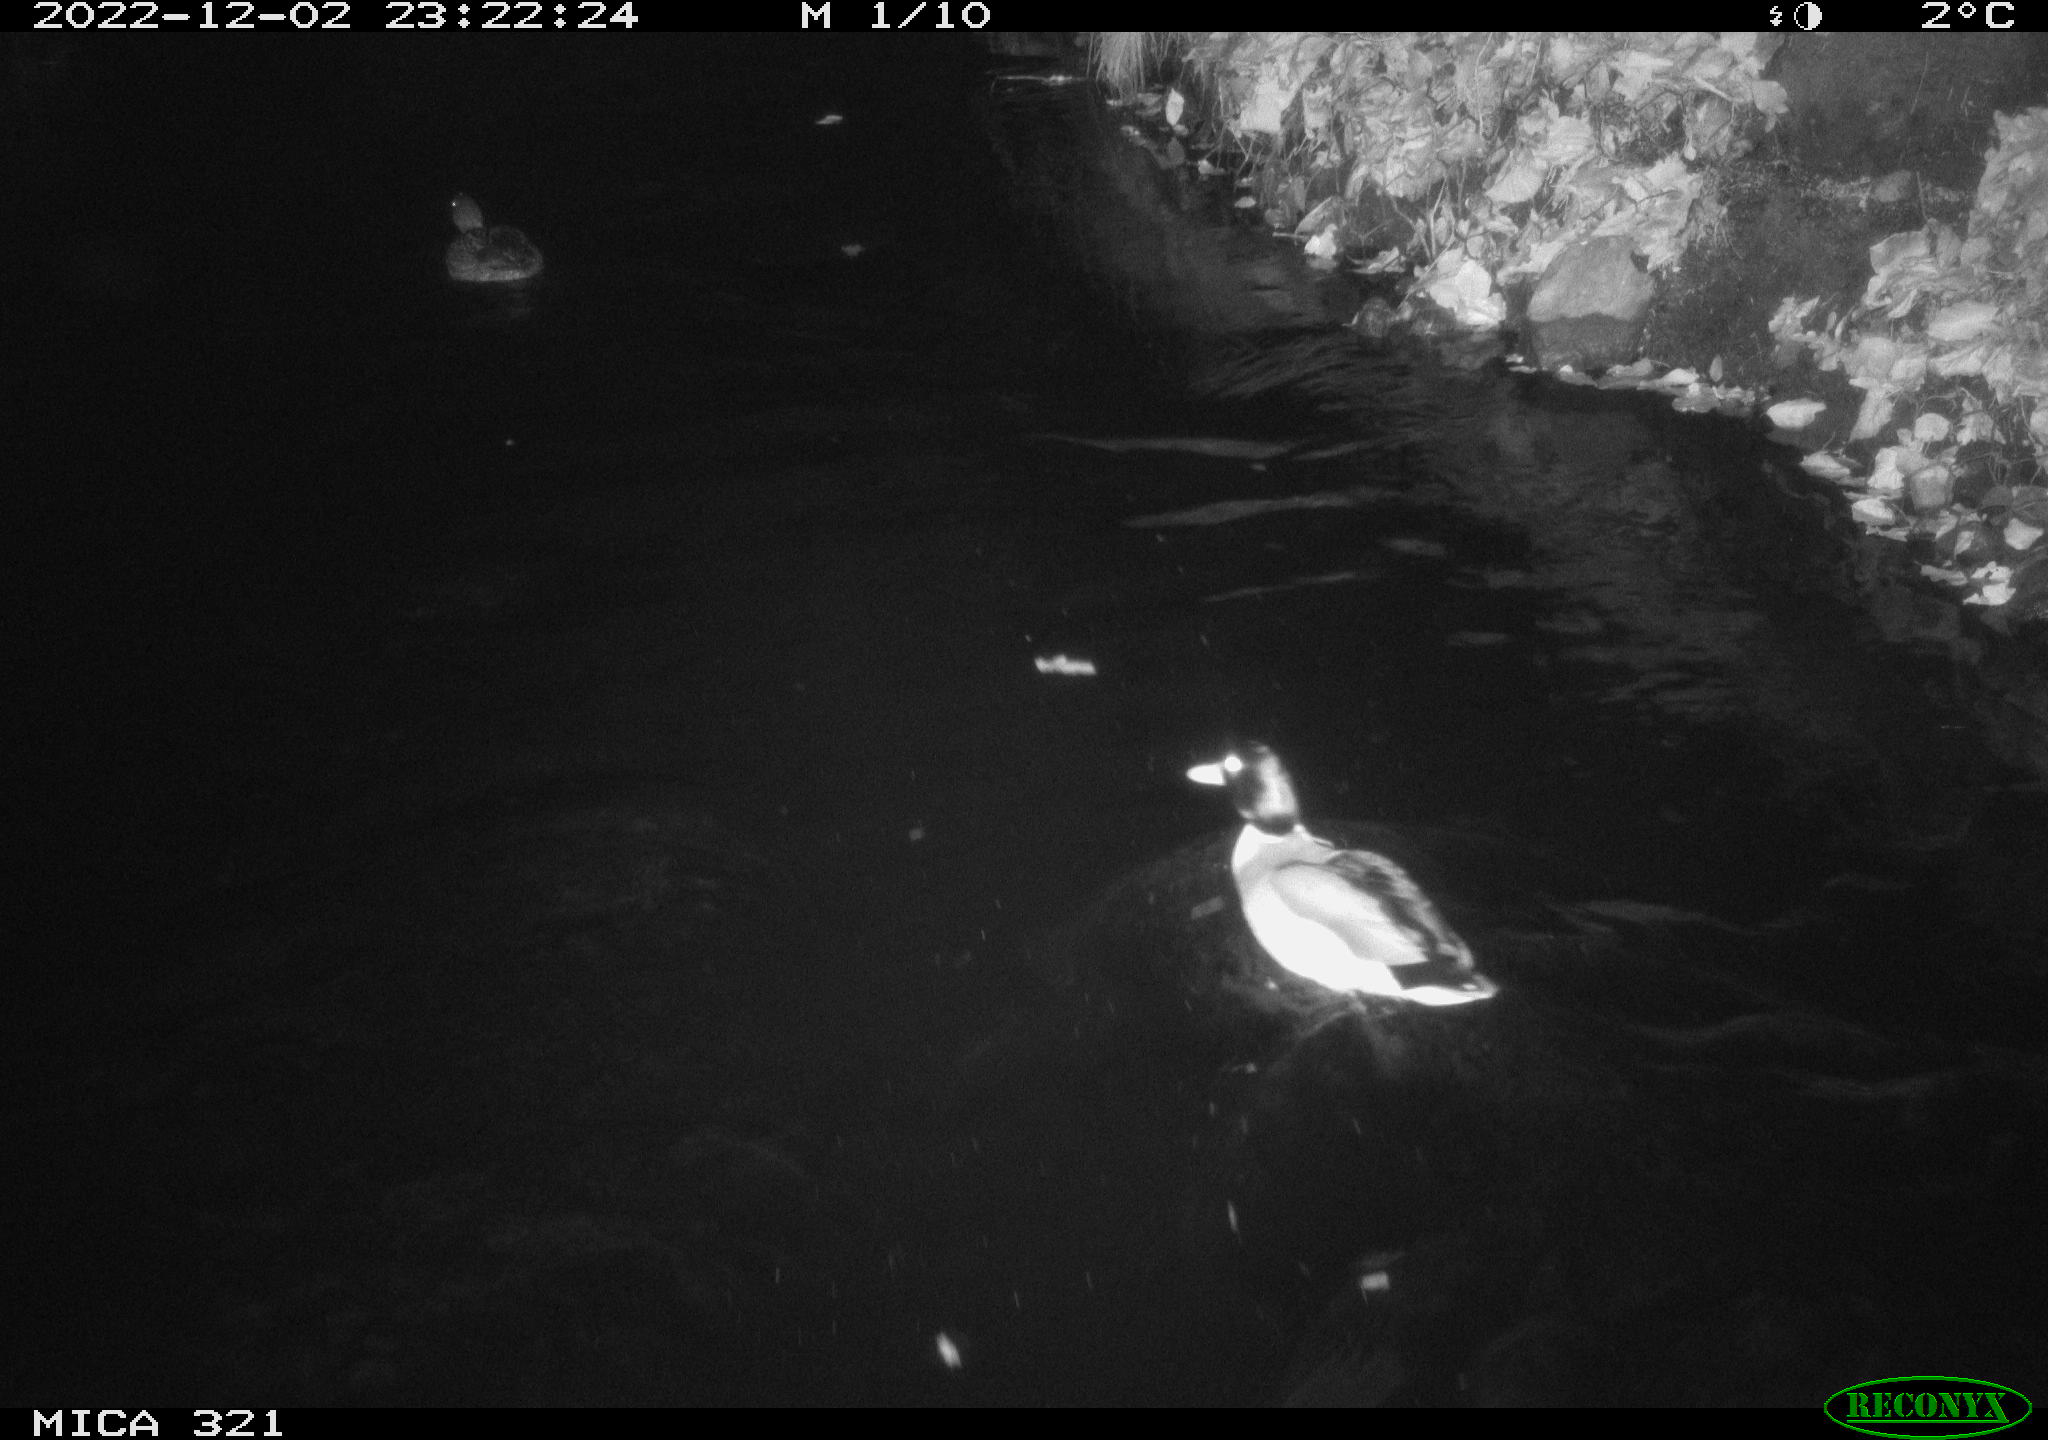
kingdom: Animalia
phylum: Chordata
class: Aves
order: Anseriformes
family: Anatidae
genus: Anas
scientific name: Anas
